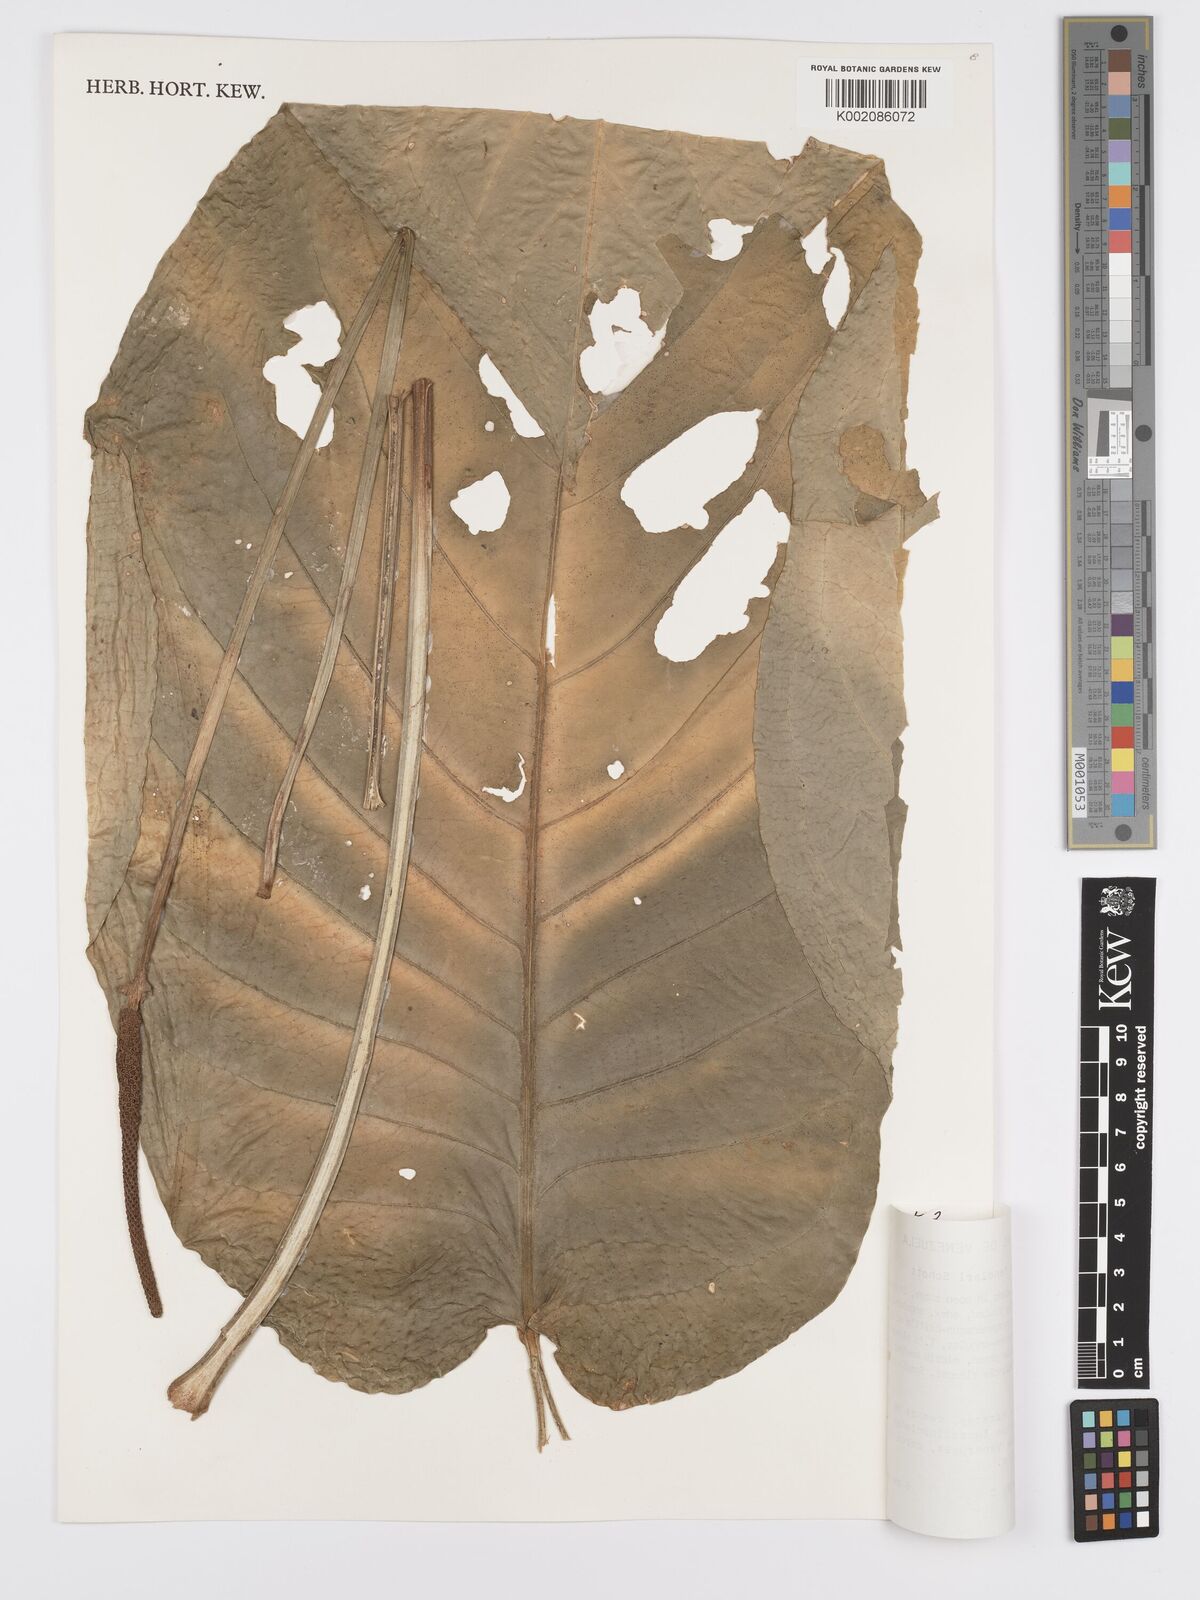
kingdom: Plantae
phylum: Tracheophyta
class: Liliopsida
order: Alismatales
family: Araceae
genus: Anthurium
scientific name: Anthurium fendleri
